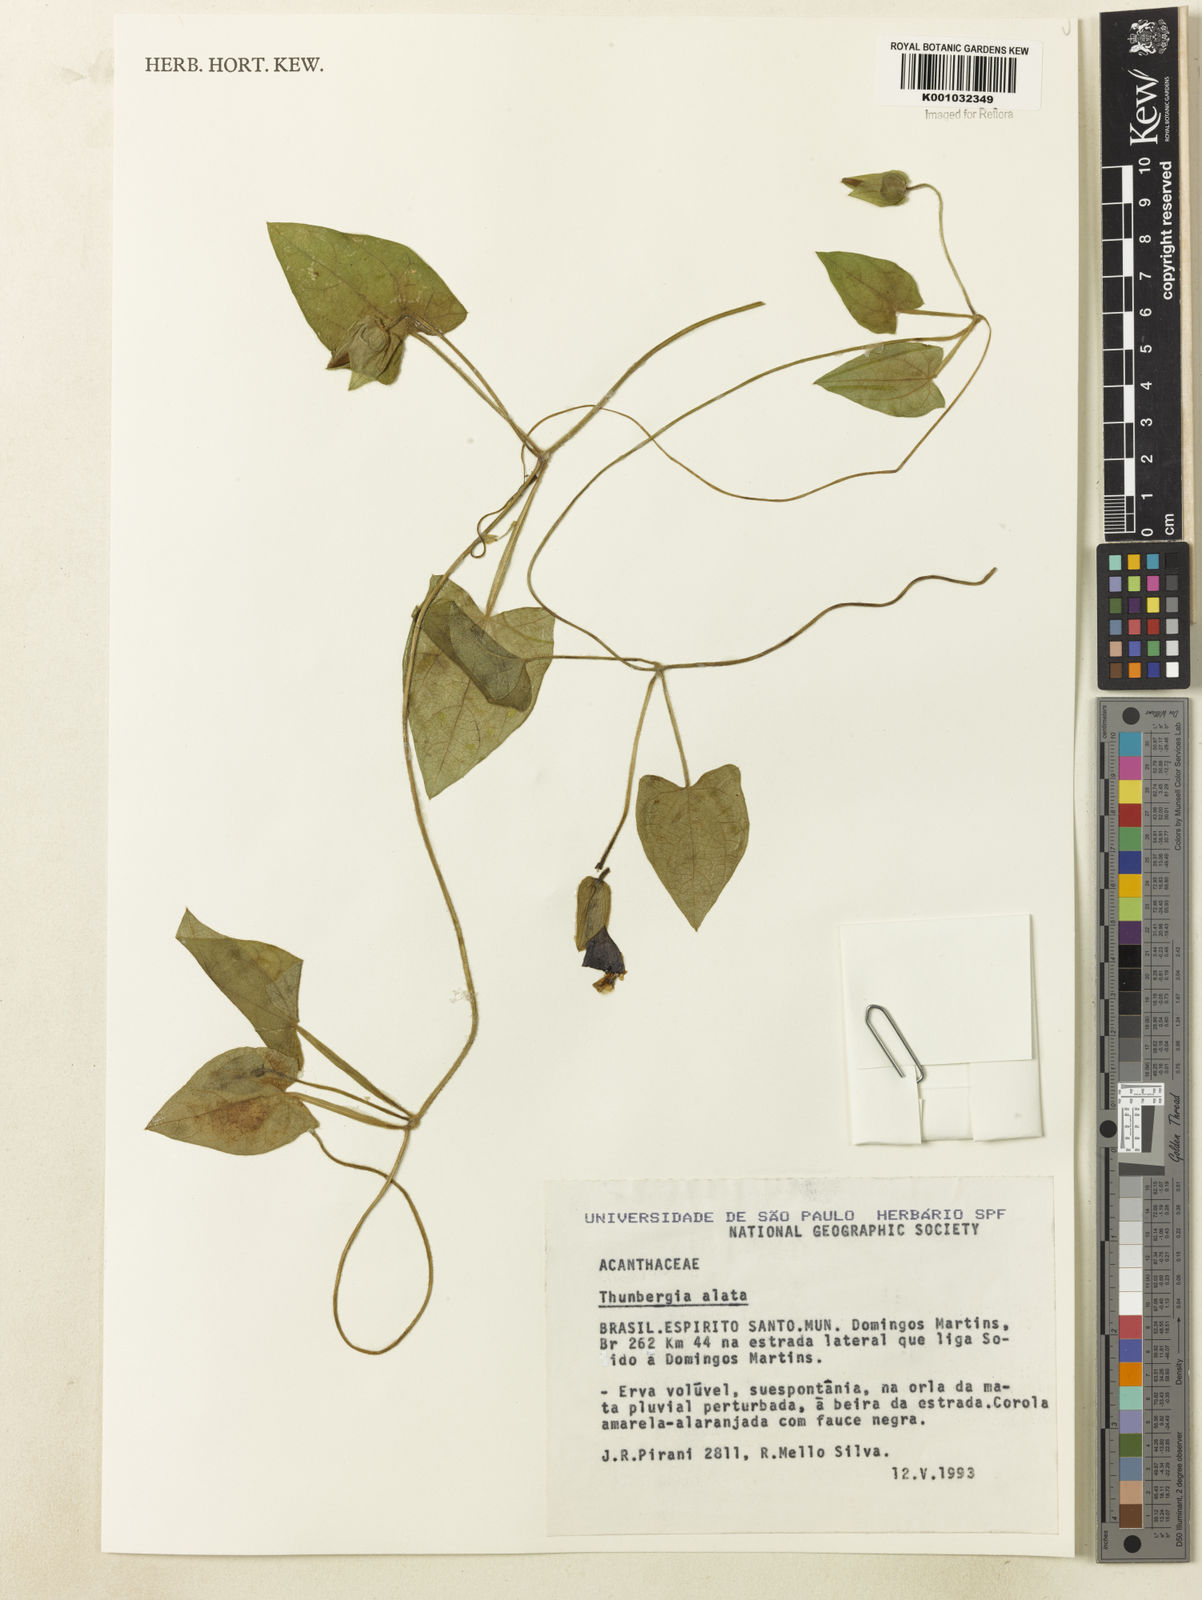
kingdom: Plantae
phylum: Tracheophyta
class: Magnoliopsida
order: Lamiales
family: Acanthaceae
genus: Thunbergia
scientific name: Thunbergia alata
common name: Blackeyed susan vine
